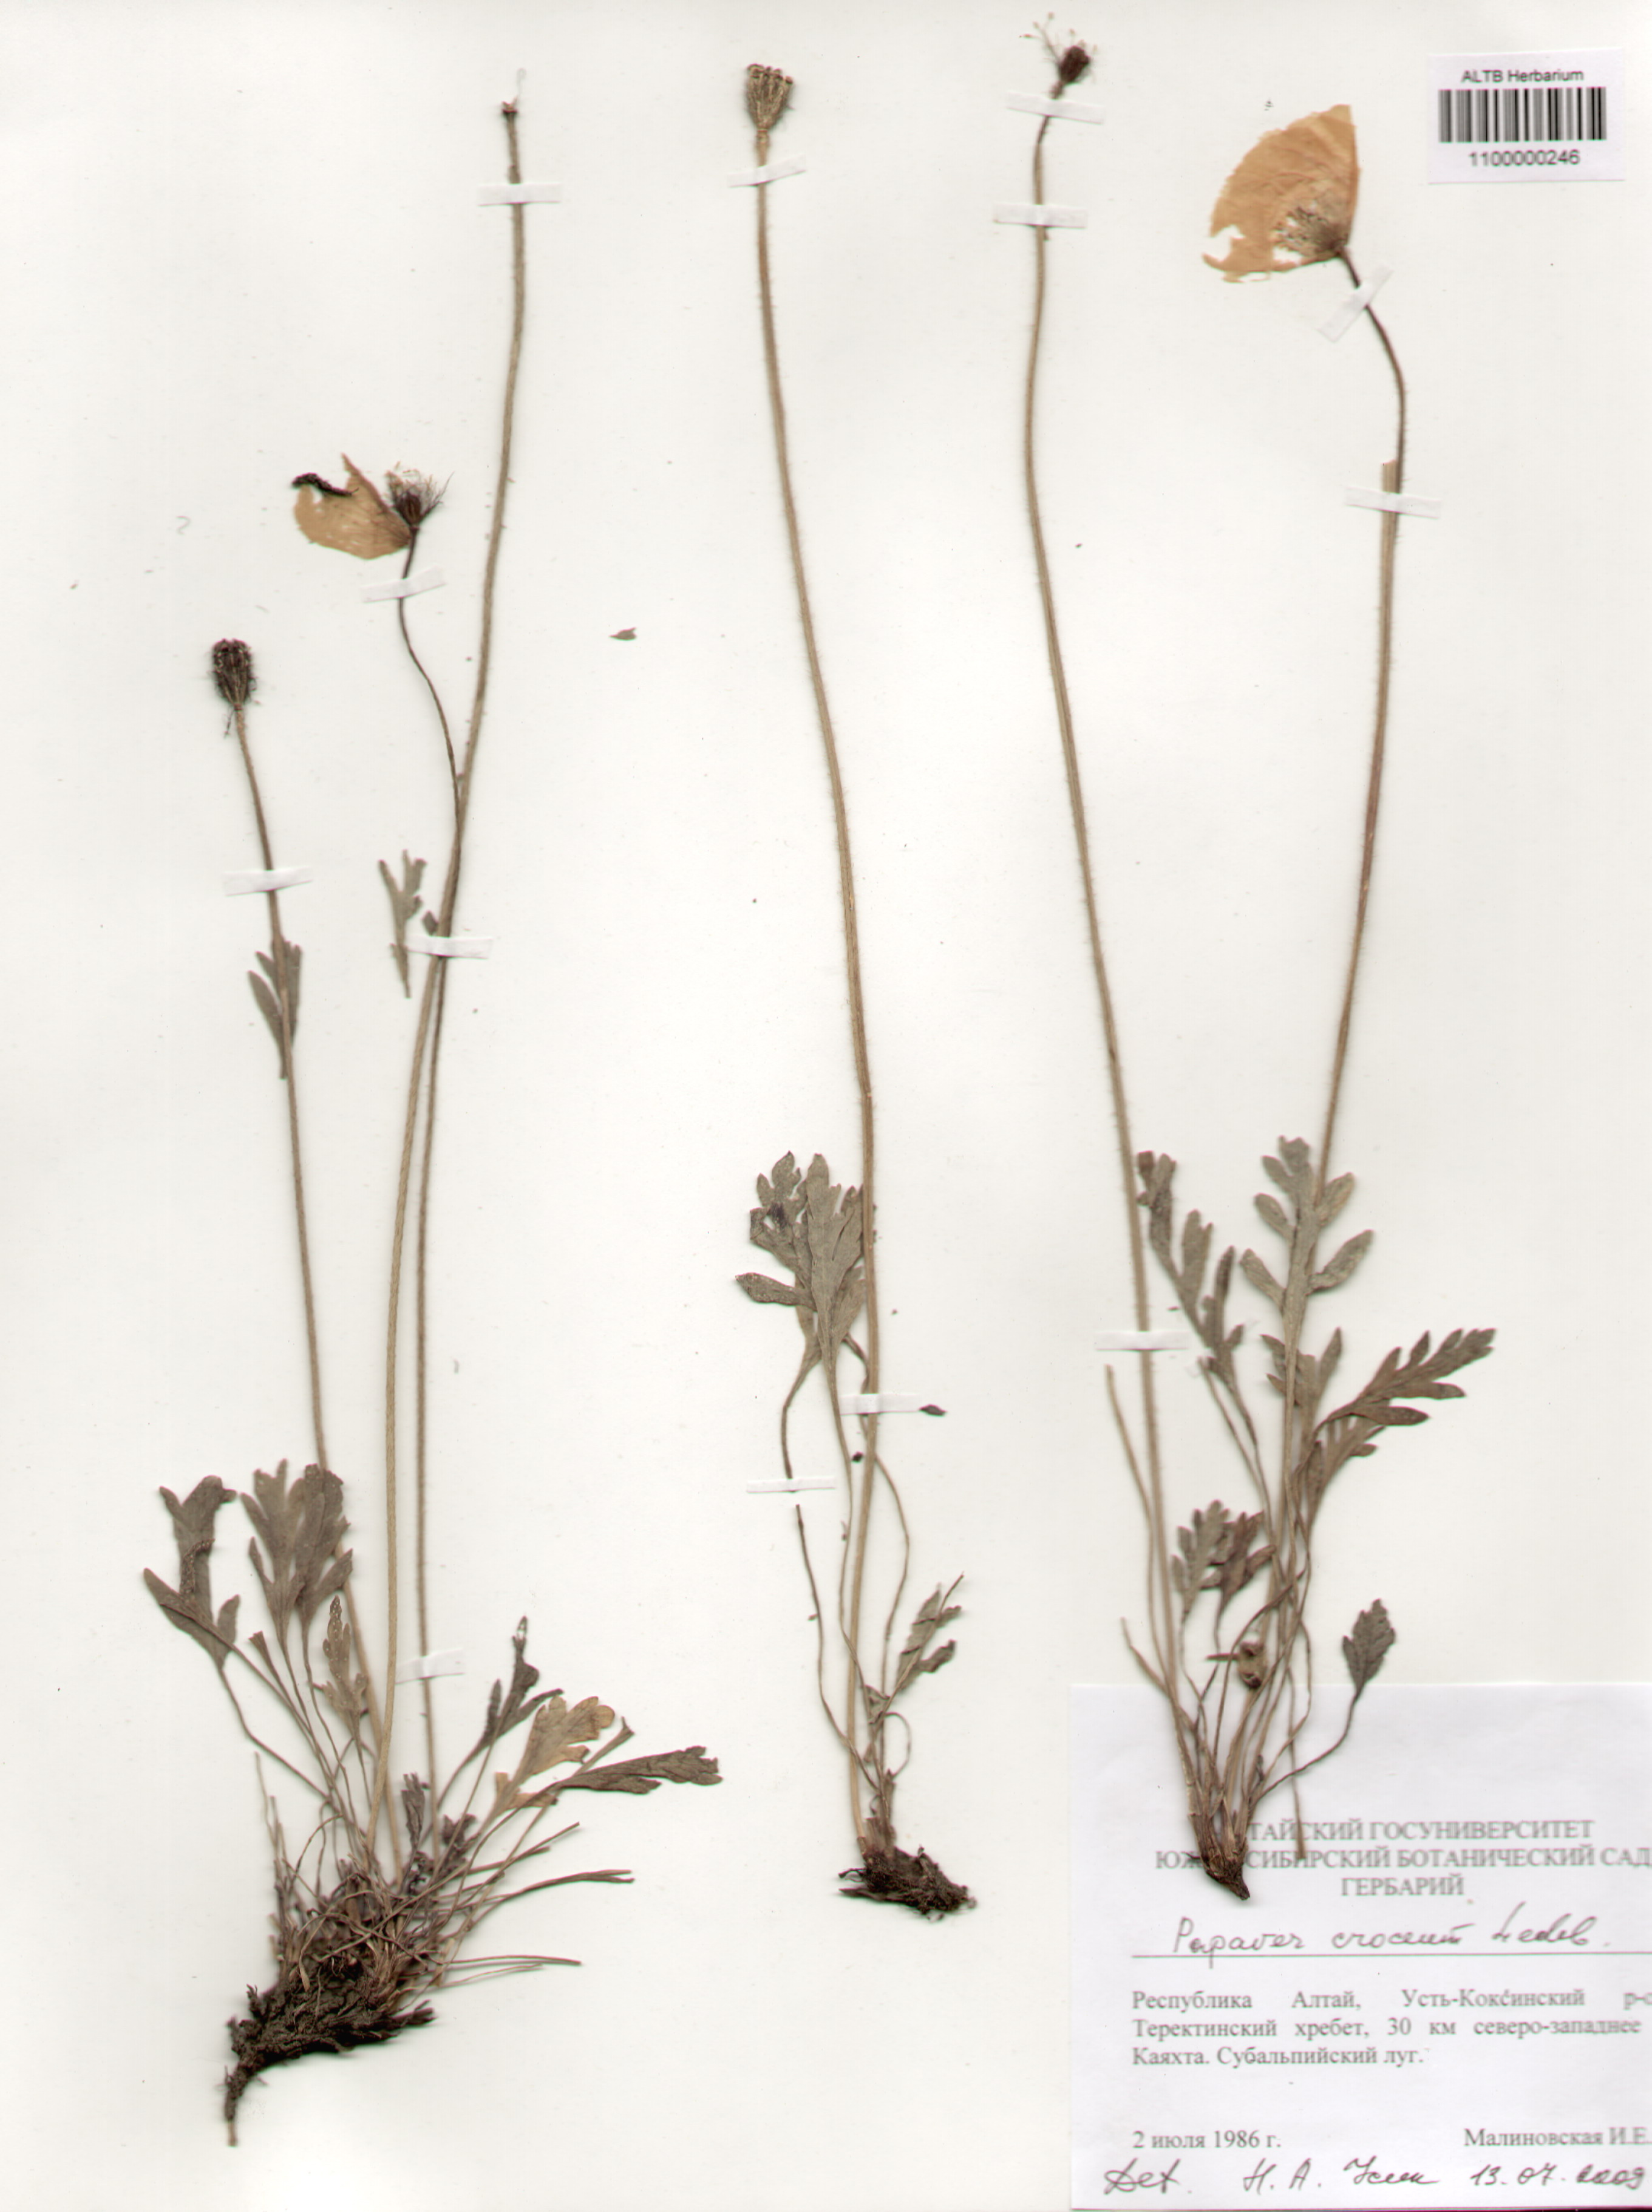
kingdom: Plantae
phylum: Tracheophyta
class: Magnoliopsida
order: Ranunculales
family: Papaveraceae
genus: Papaver
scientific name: Papaver croceum
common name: Siberian poppy
